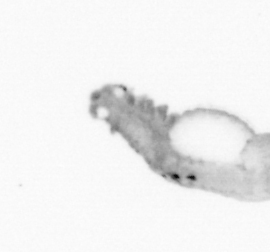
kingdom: Animalia
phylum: Annelida
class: Polychaeta
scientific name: Polychaeta
